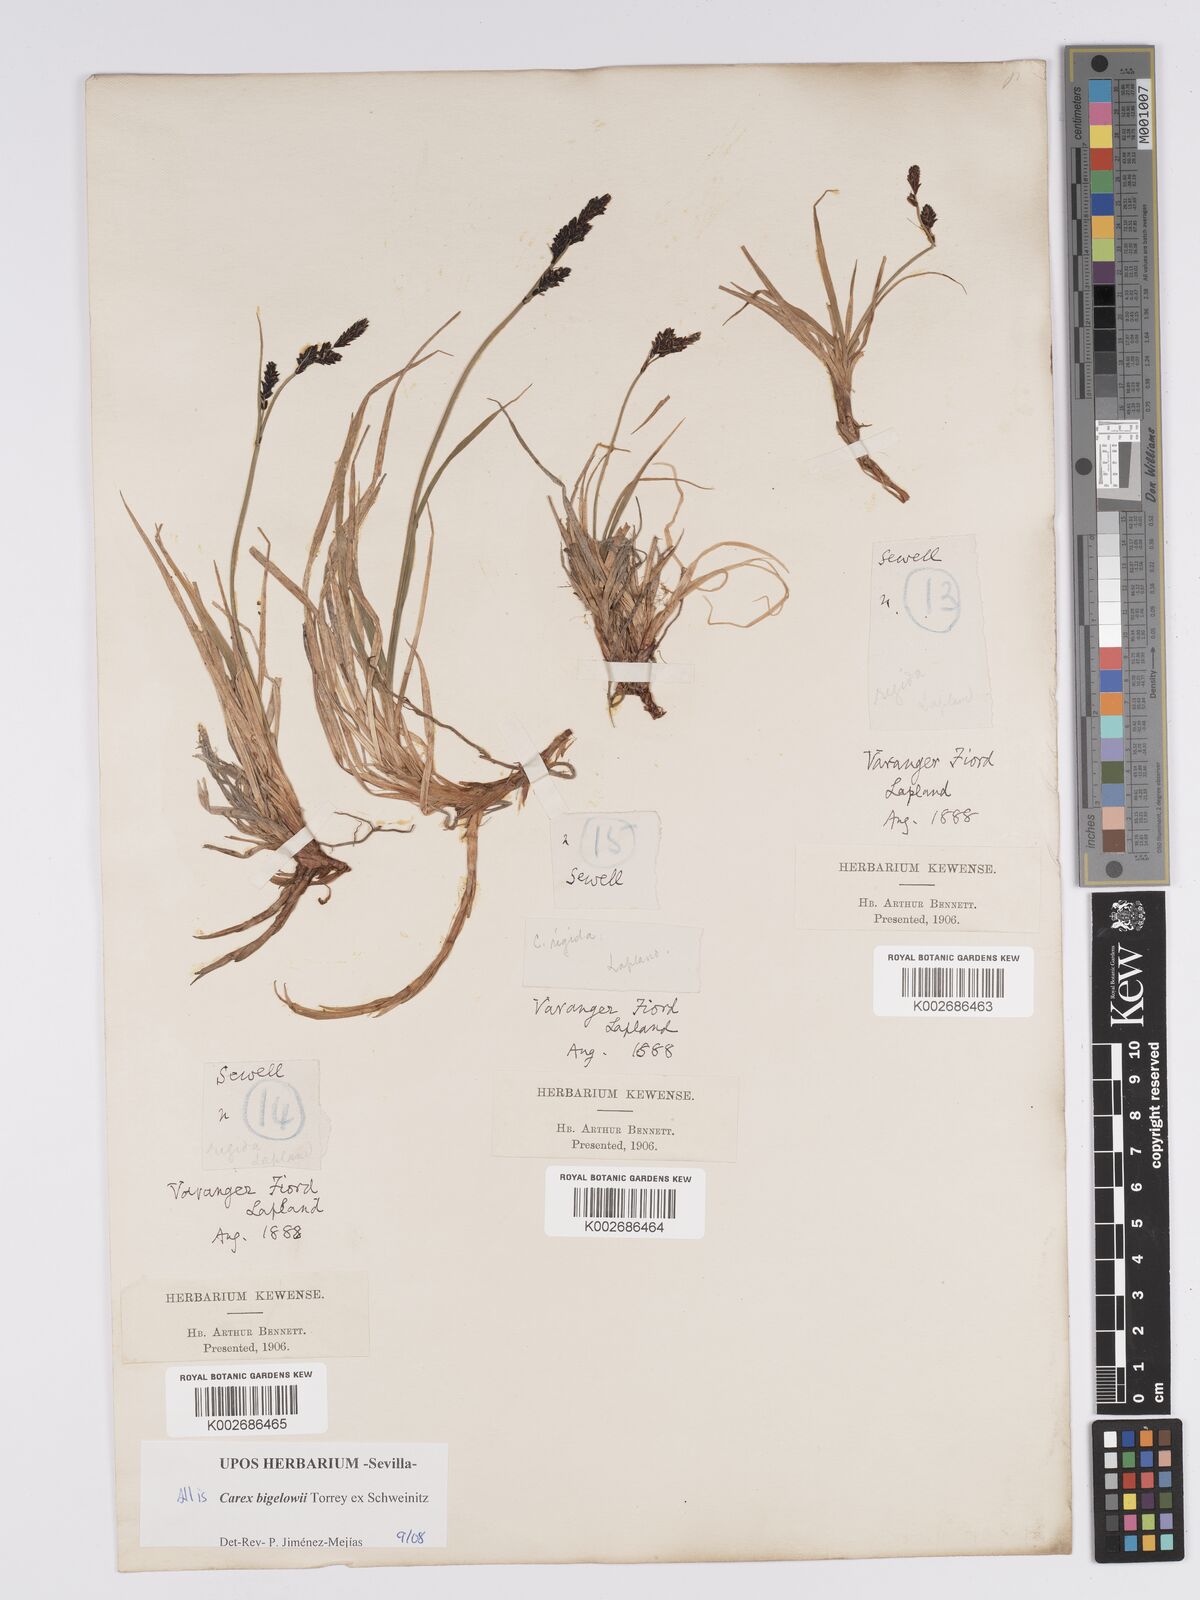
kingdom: Plantae
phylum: Tracheophyta
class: Liliopsida
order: Poales
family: Cyperaceae
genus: Carex
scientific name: Carex bigelowii
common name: Stiff sedge
